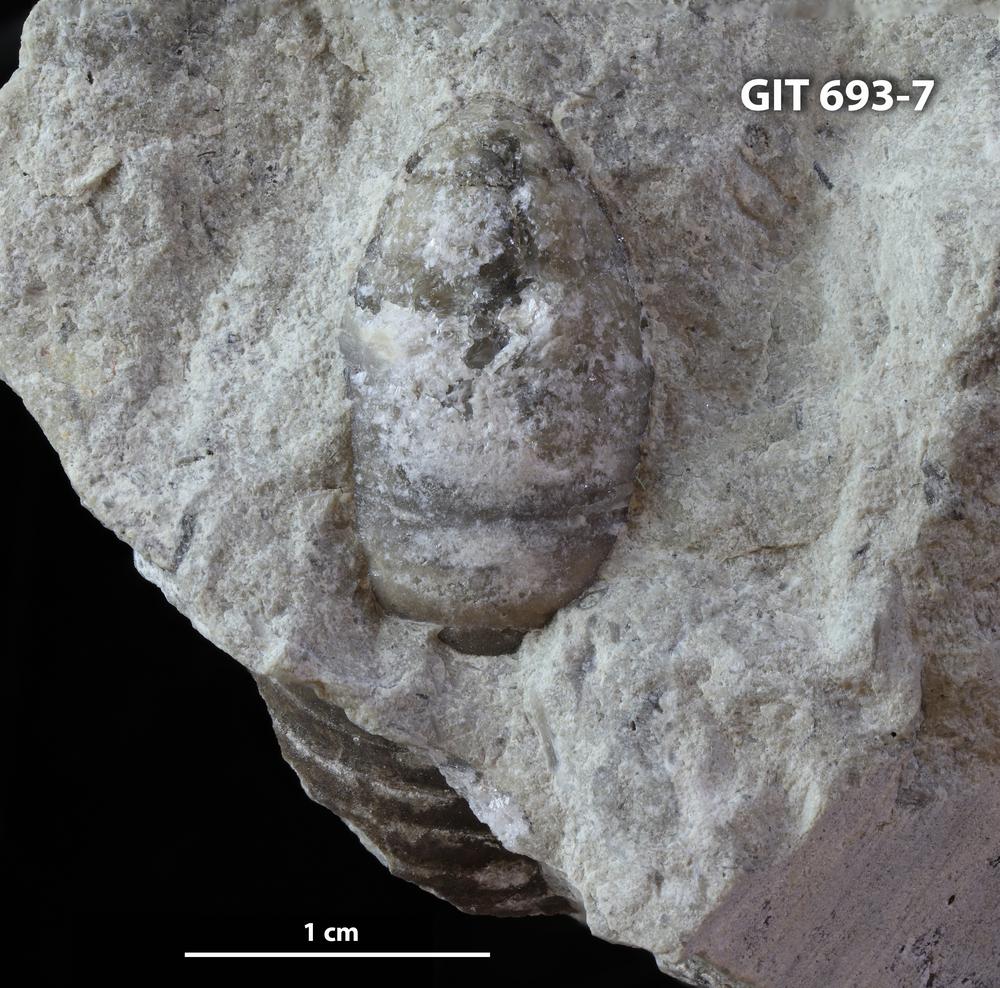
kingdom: Animalia
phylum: Mollusca
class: Monoplacophora
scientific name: Monoplacophora
